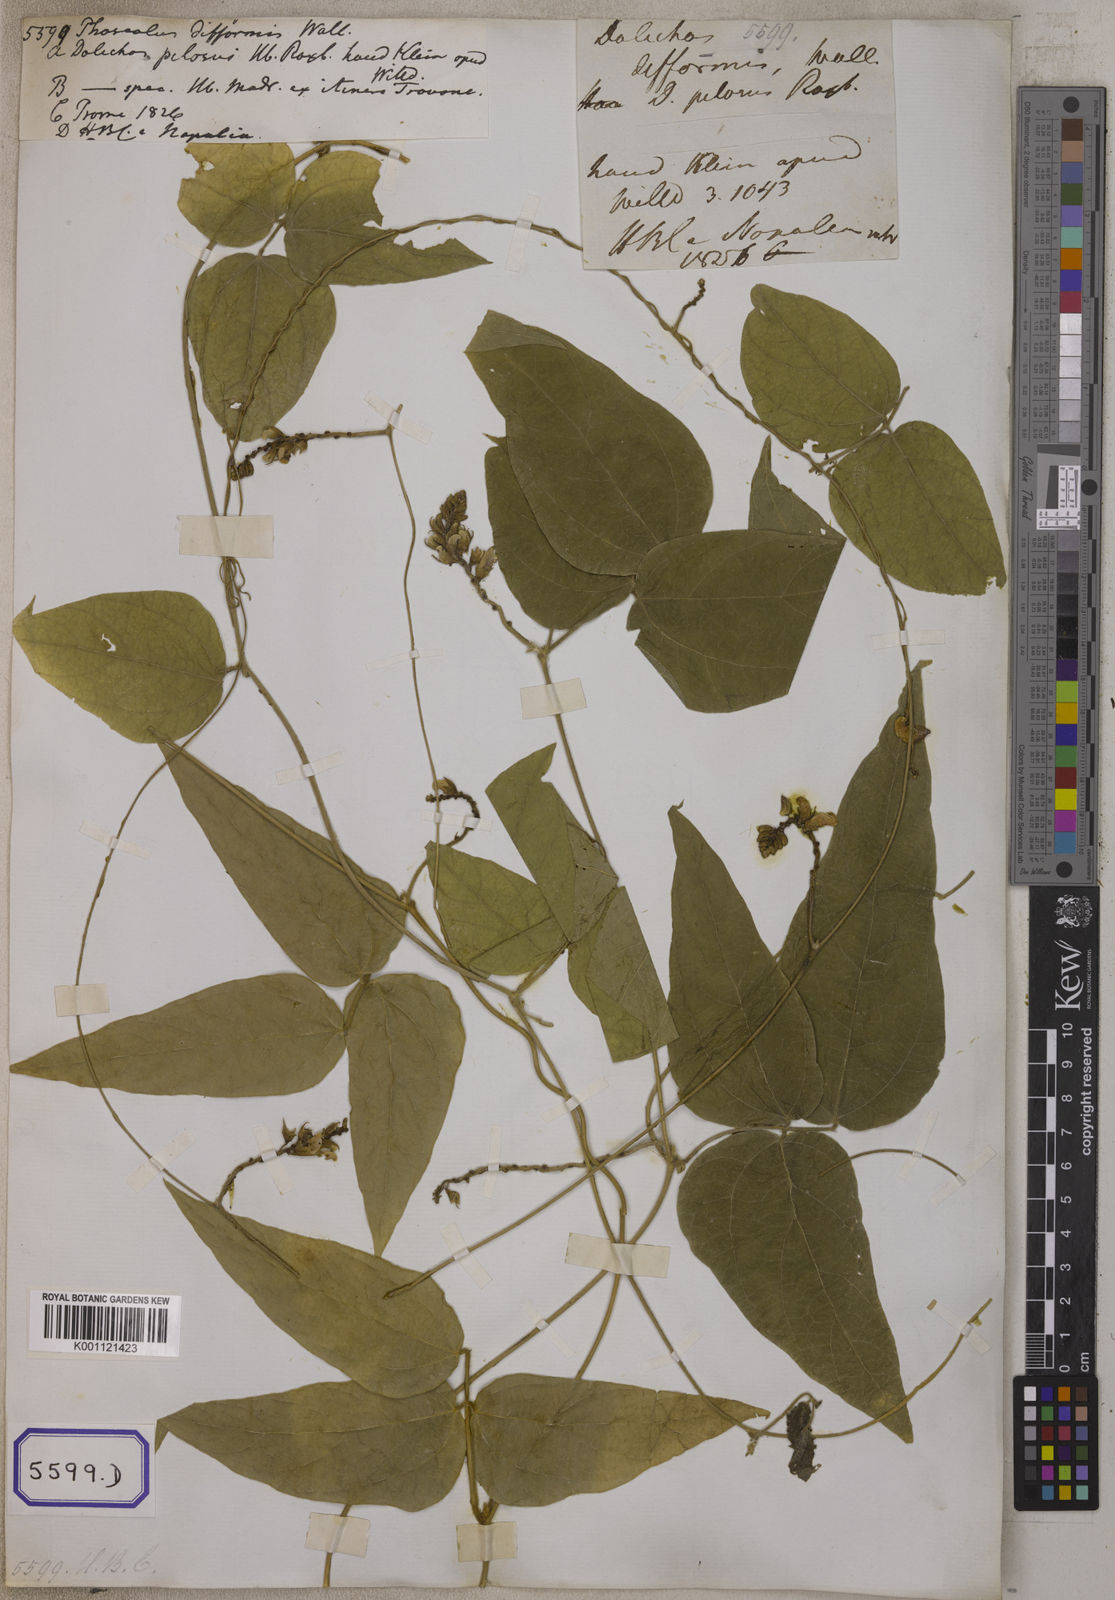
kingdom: Plantae
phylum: Tracheophyta
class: Magnoliopsida
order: Fabales
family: Fabaceae
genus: Dysolobium
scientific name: Dysolobium pilosum
